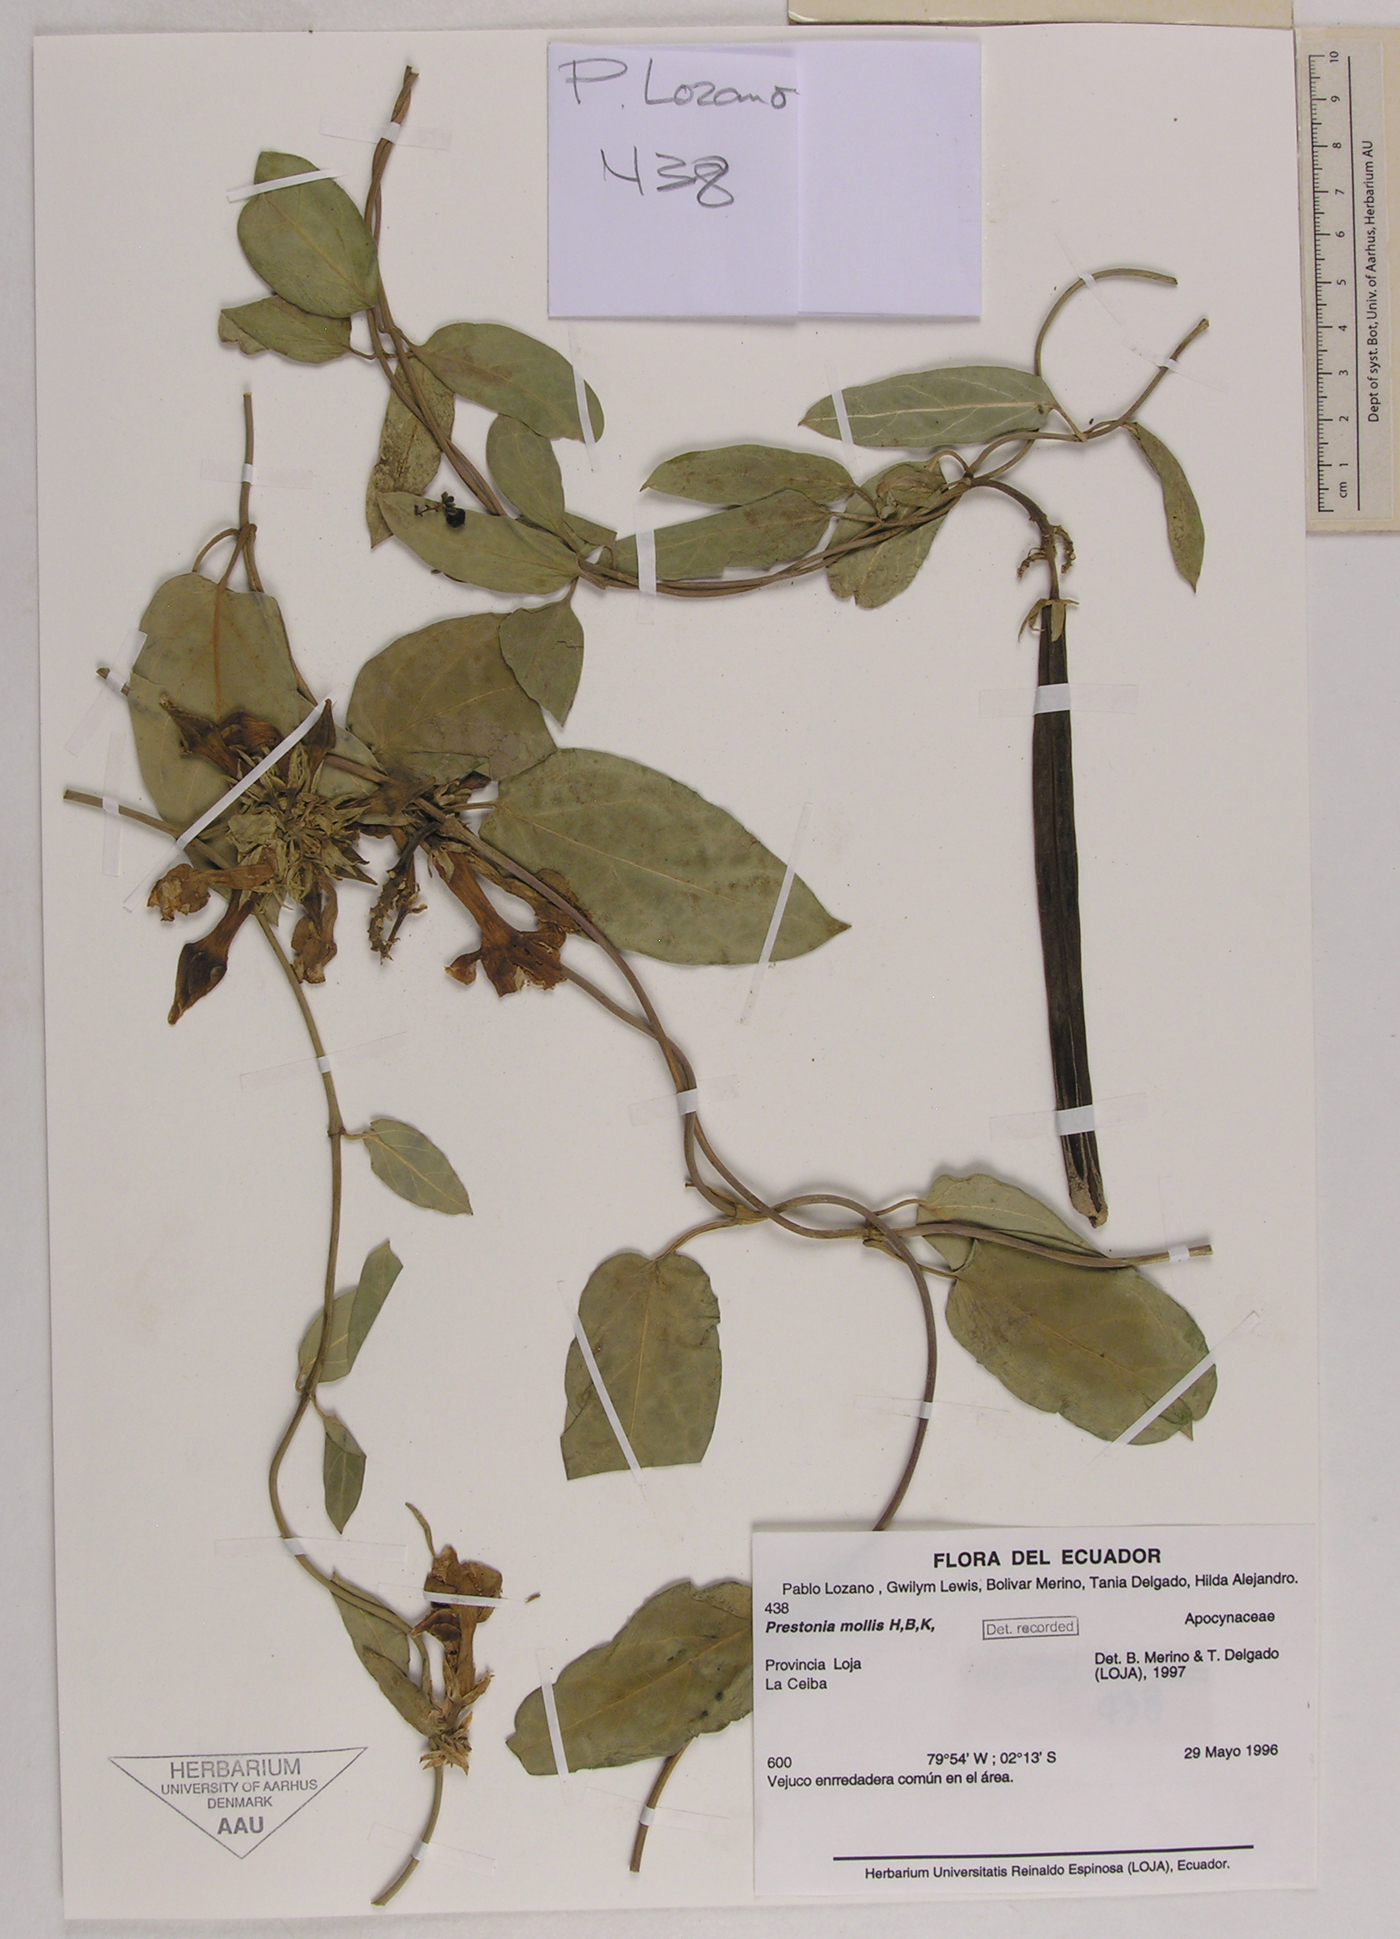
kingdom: Plantae
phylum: Tracheophyta
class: Magnoliopsida
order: Gentianales
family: Apocynaceae
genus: Prestonia
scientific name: Prestonia mollis
